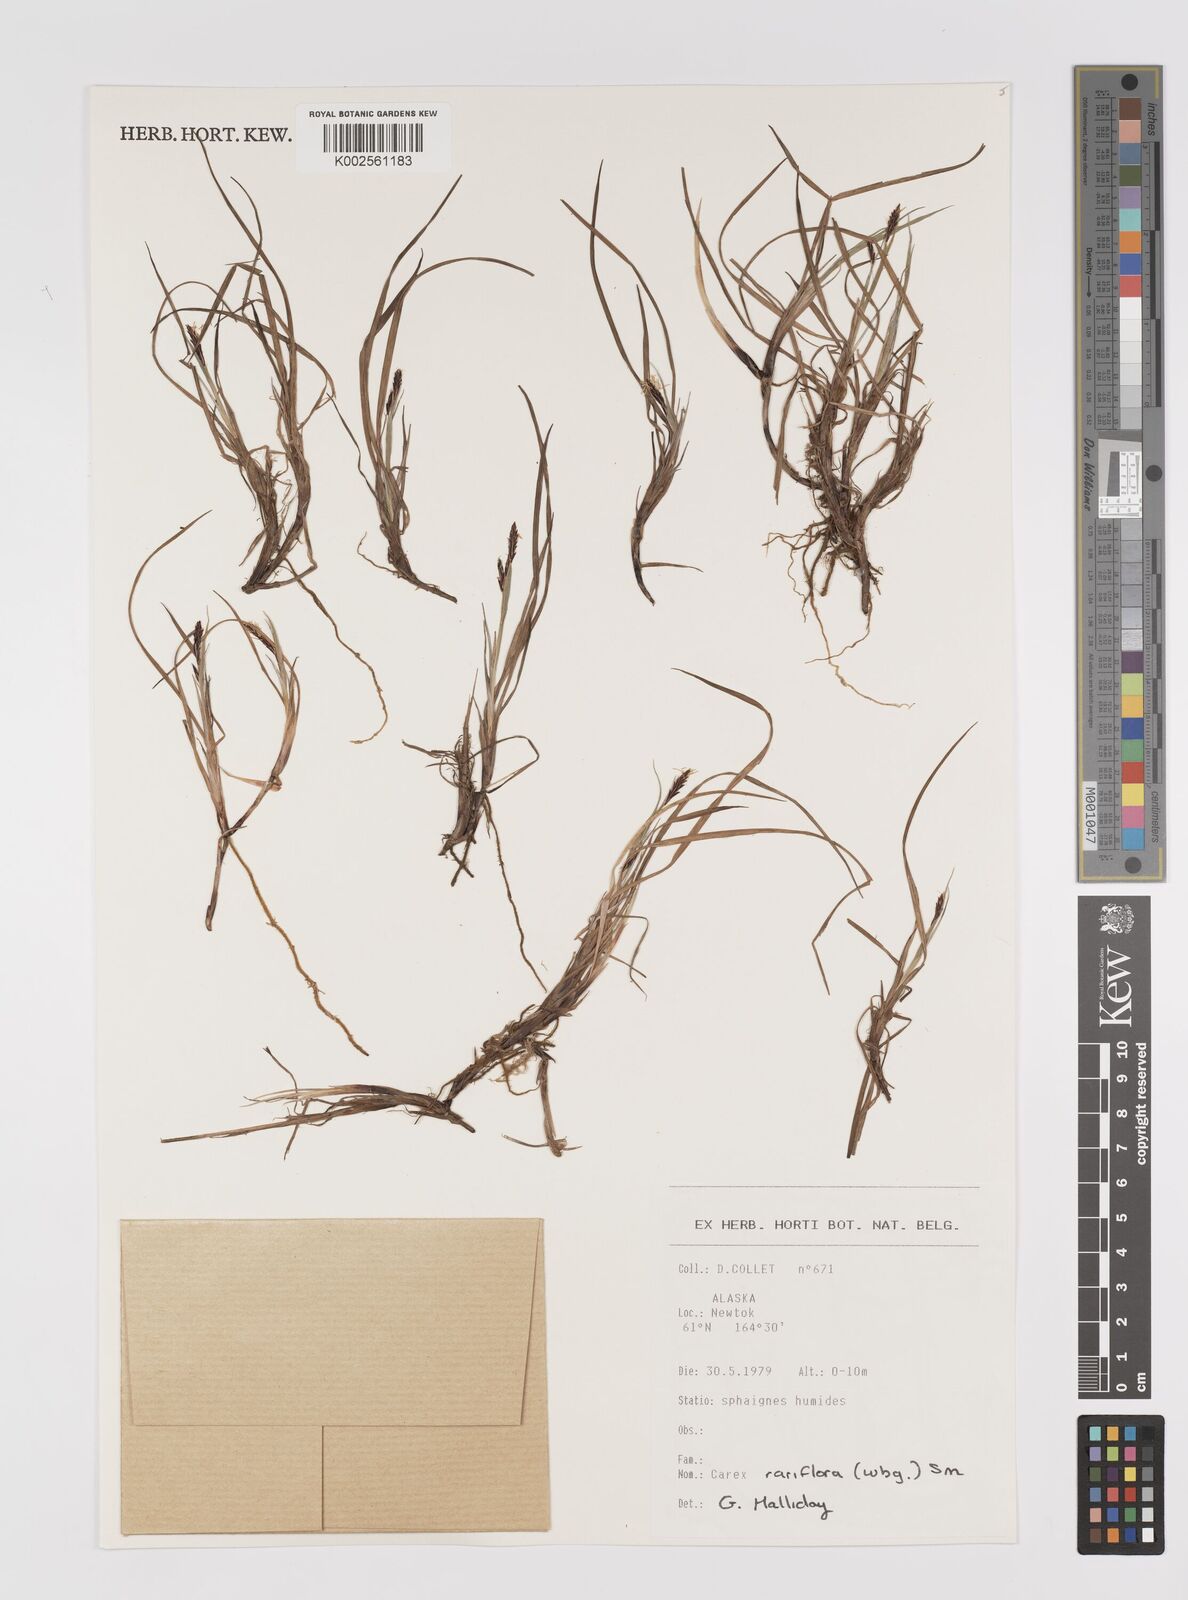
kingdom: Plantae
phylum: Tracheophyta
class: Liliopsida
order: Poales
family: Cyperaceae
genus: Carex
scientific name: Carex rariflora
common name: Loose-flowered alpine sedge
